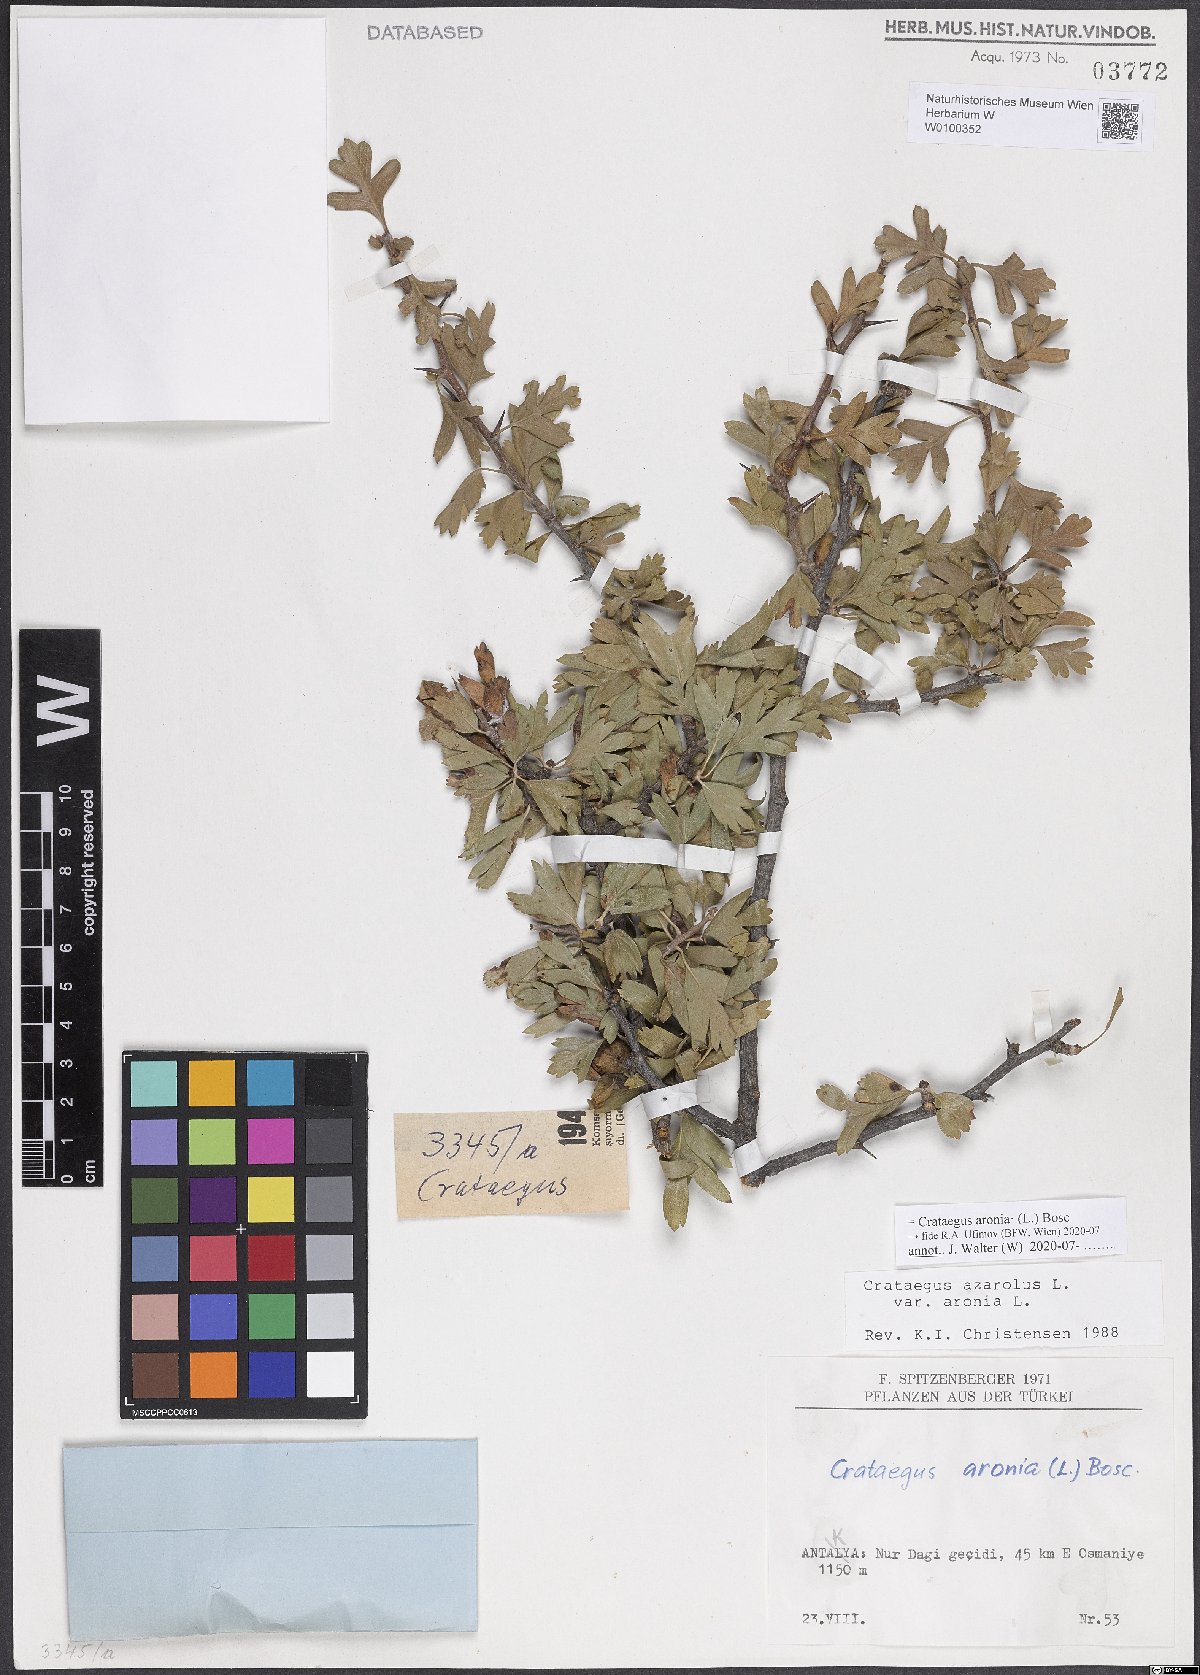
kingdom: Plantae
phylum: Tracheophyta
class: Magnoliopsida
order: Rosales
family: Rosaceae
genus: Crataegus
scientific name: Crataegus azarolus
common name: Azarole
